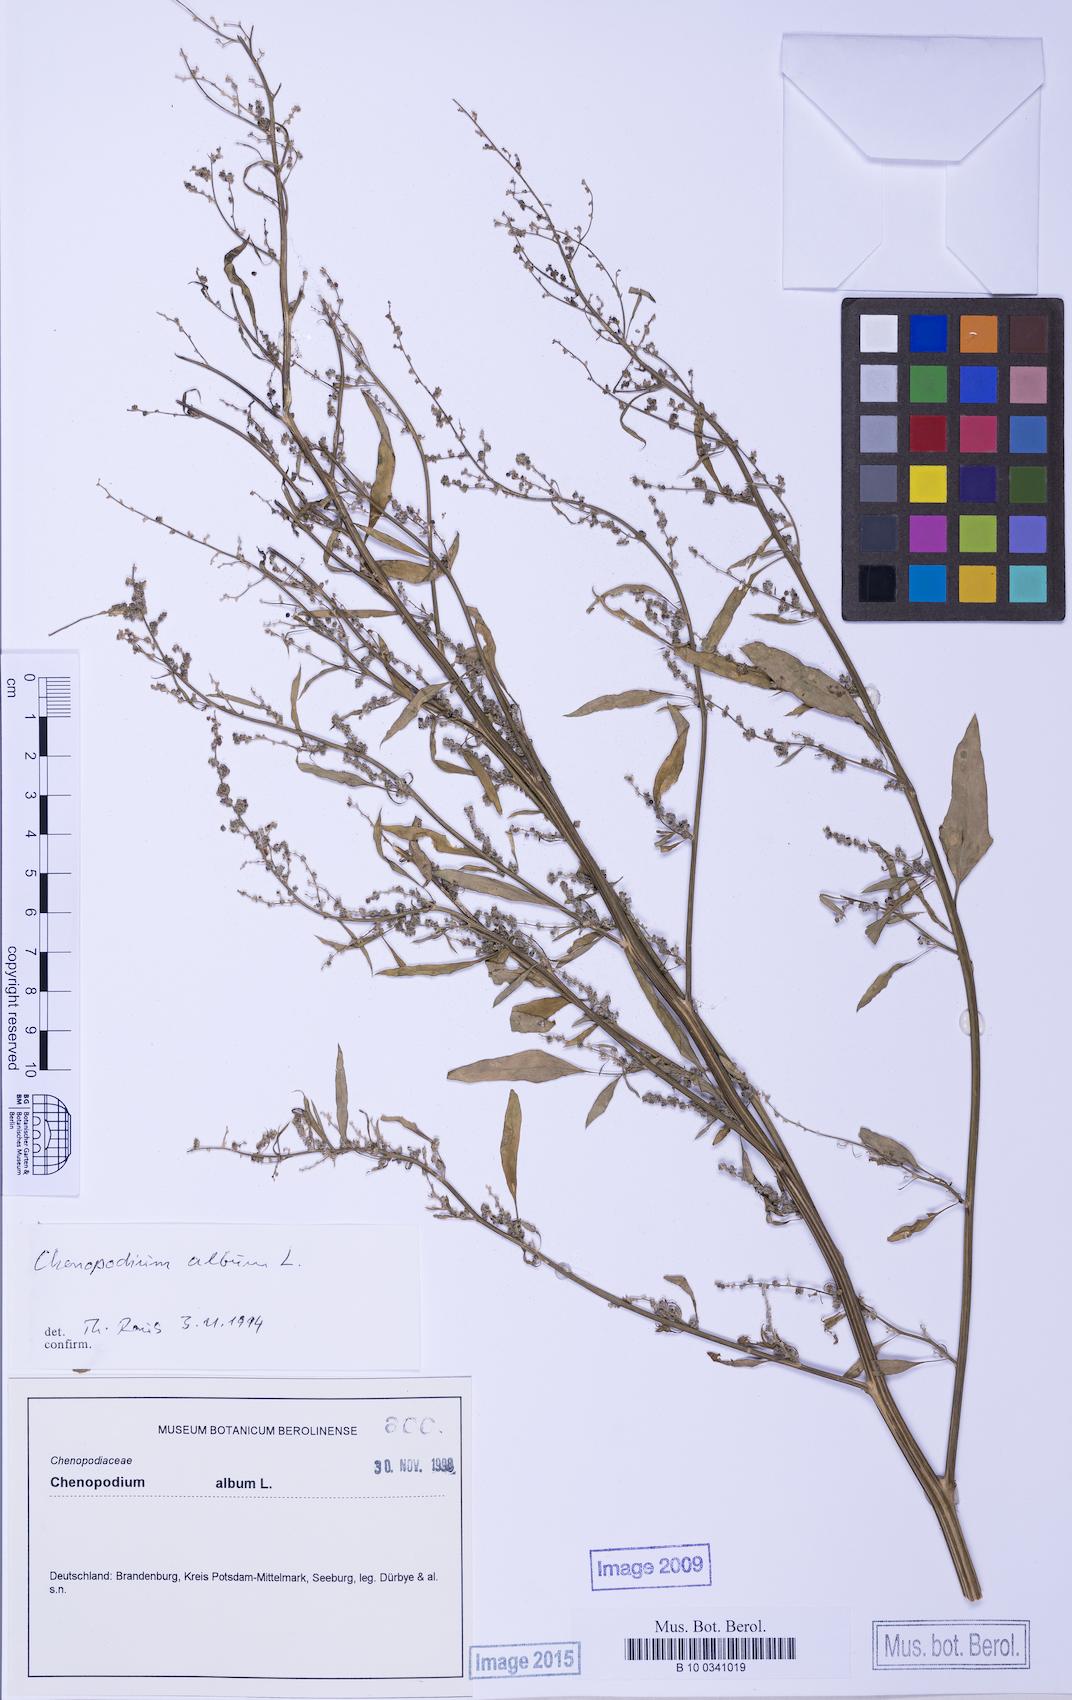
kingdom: Plantae
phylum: Tracheophyta
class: Magnoliopsida
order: Caryophyllales
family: Amaranthaceae
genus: Chenopodium
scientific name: Chenopodium album
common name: Fat-hen
